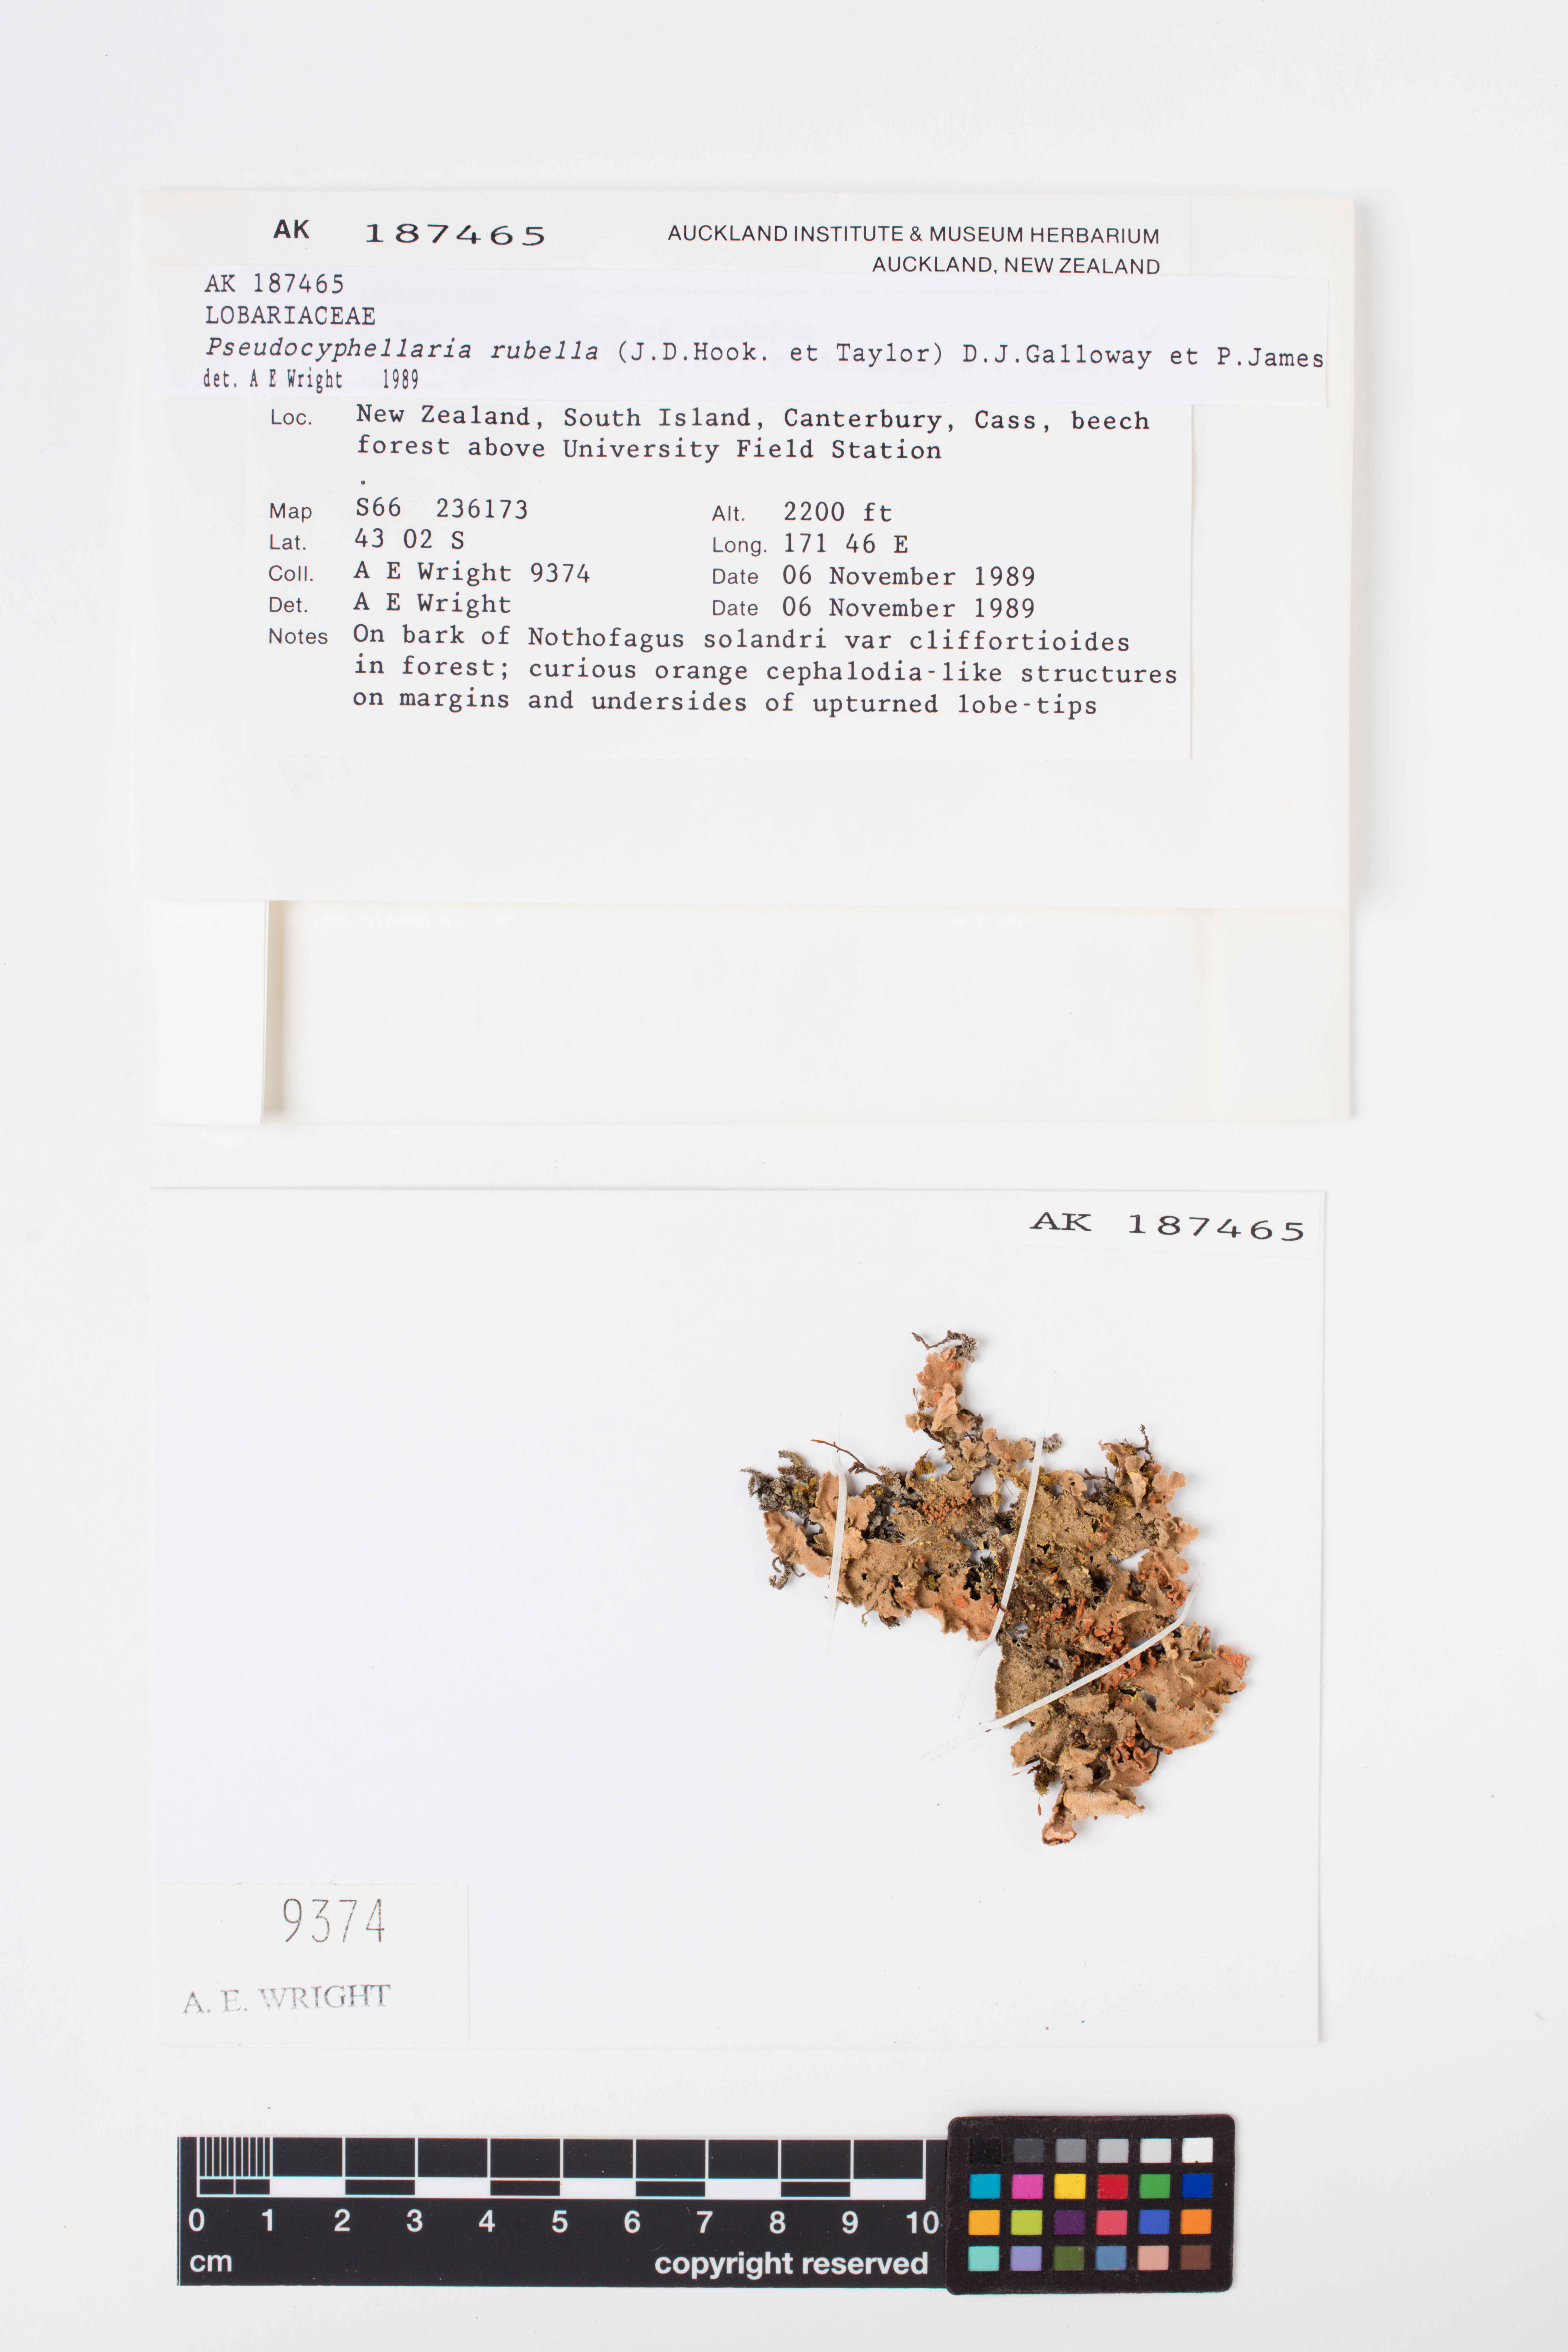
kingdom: Fungi
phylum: Ascomycota
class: Lecanoromycetes
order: Peltigerales
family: Lobariaceae
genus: Pseudocyphellaria
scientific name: Pseudocyphellaria rubella
